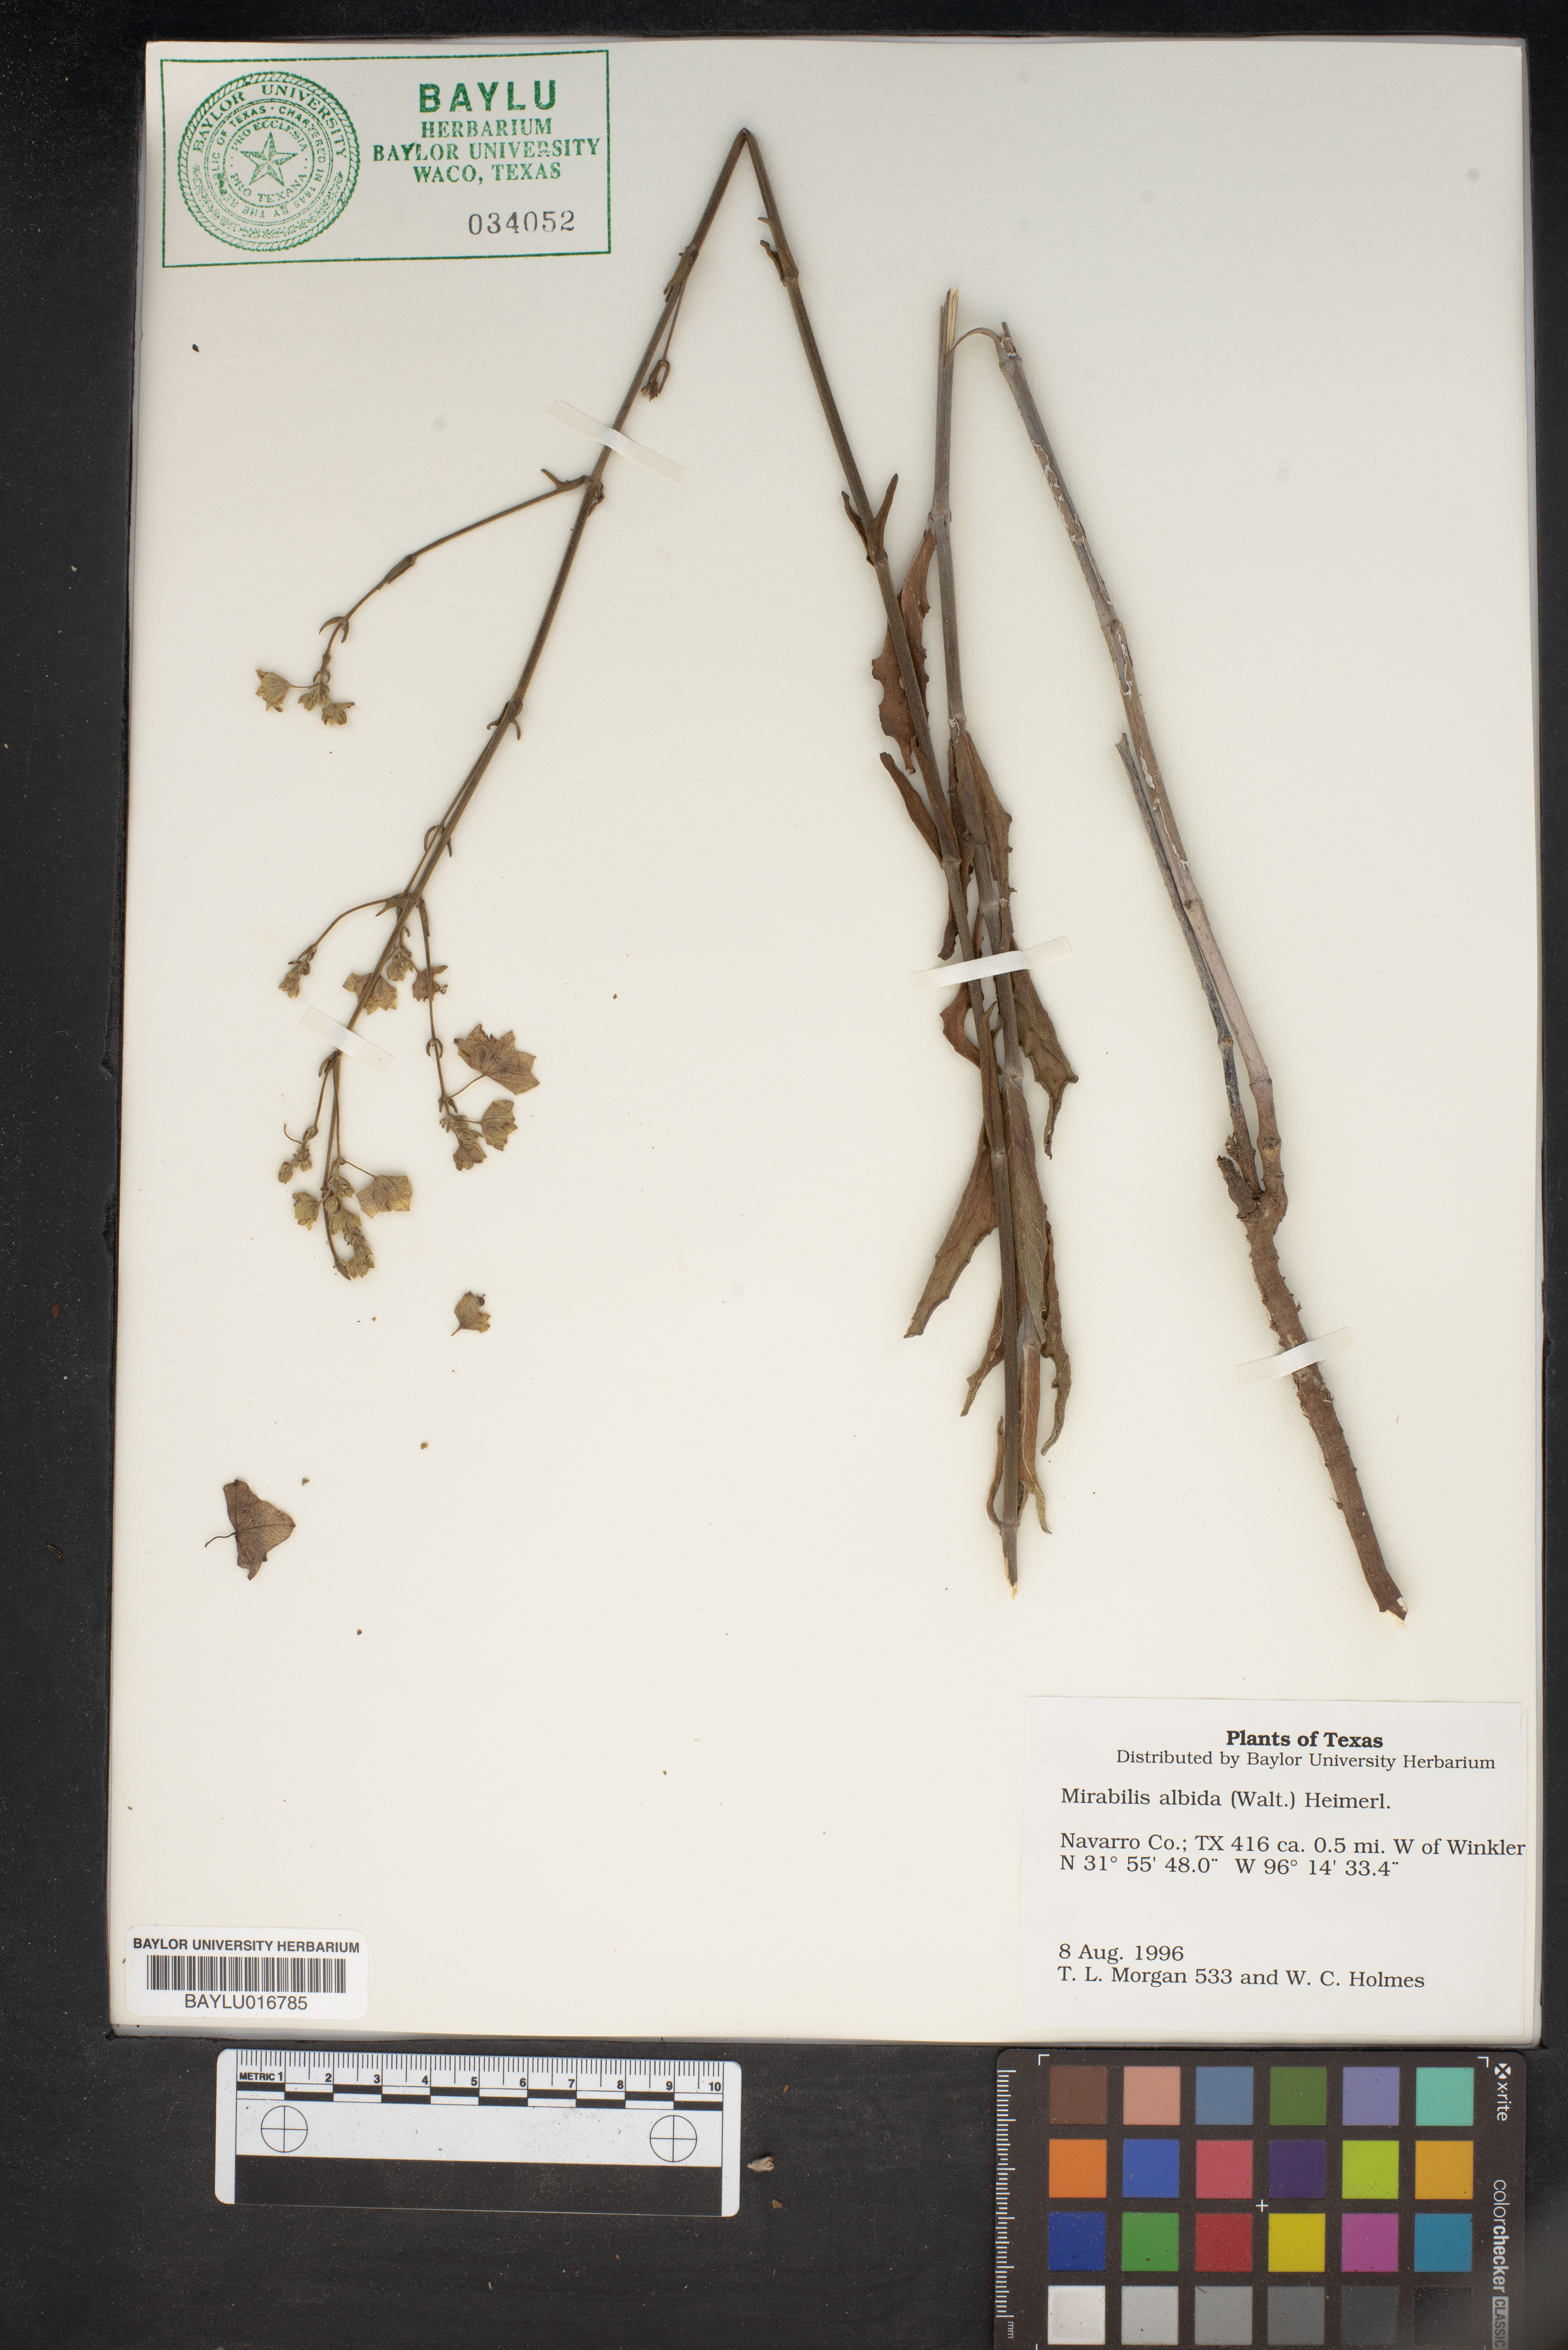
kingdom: Plantae
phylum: Tracheophyta
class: Magnoliopsida
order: Caryophyllales
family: Nyctaginaceae
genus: Mirabilis
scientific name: Mirabilis albida
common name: Hairy four-o'clock
